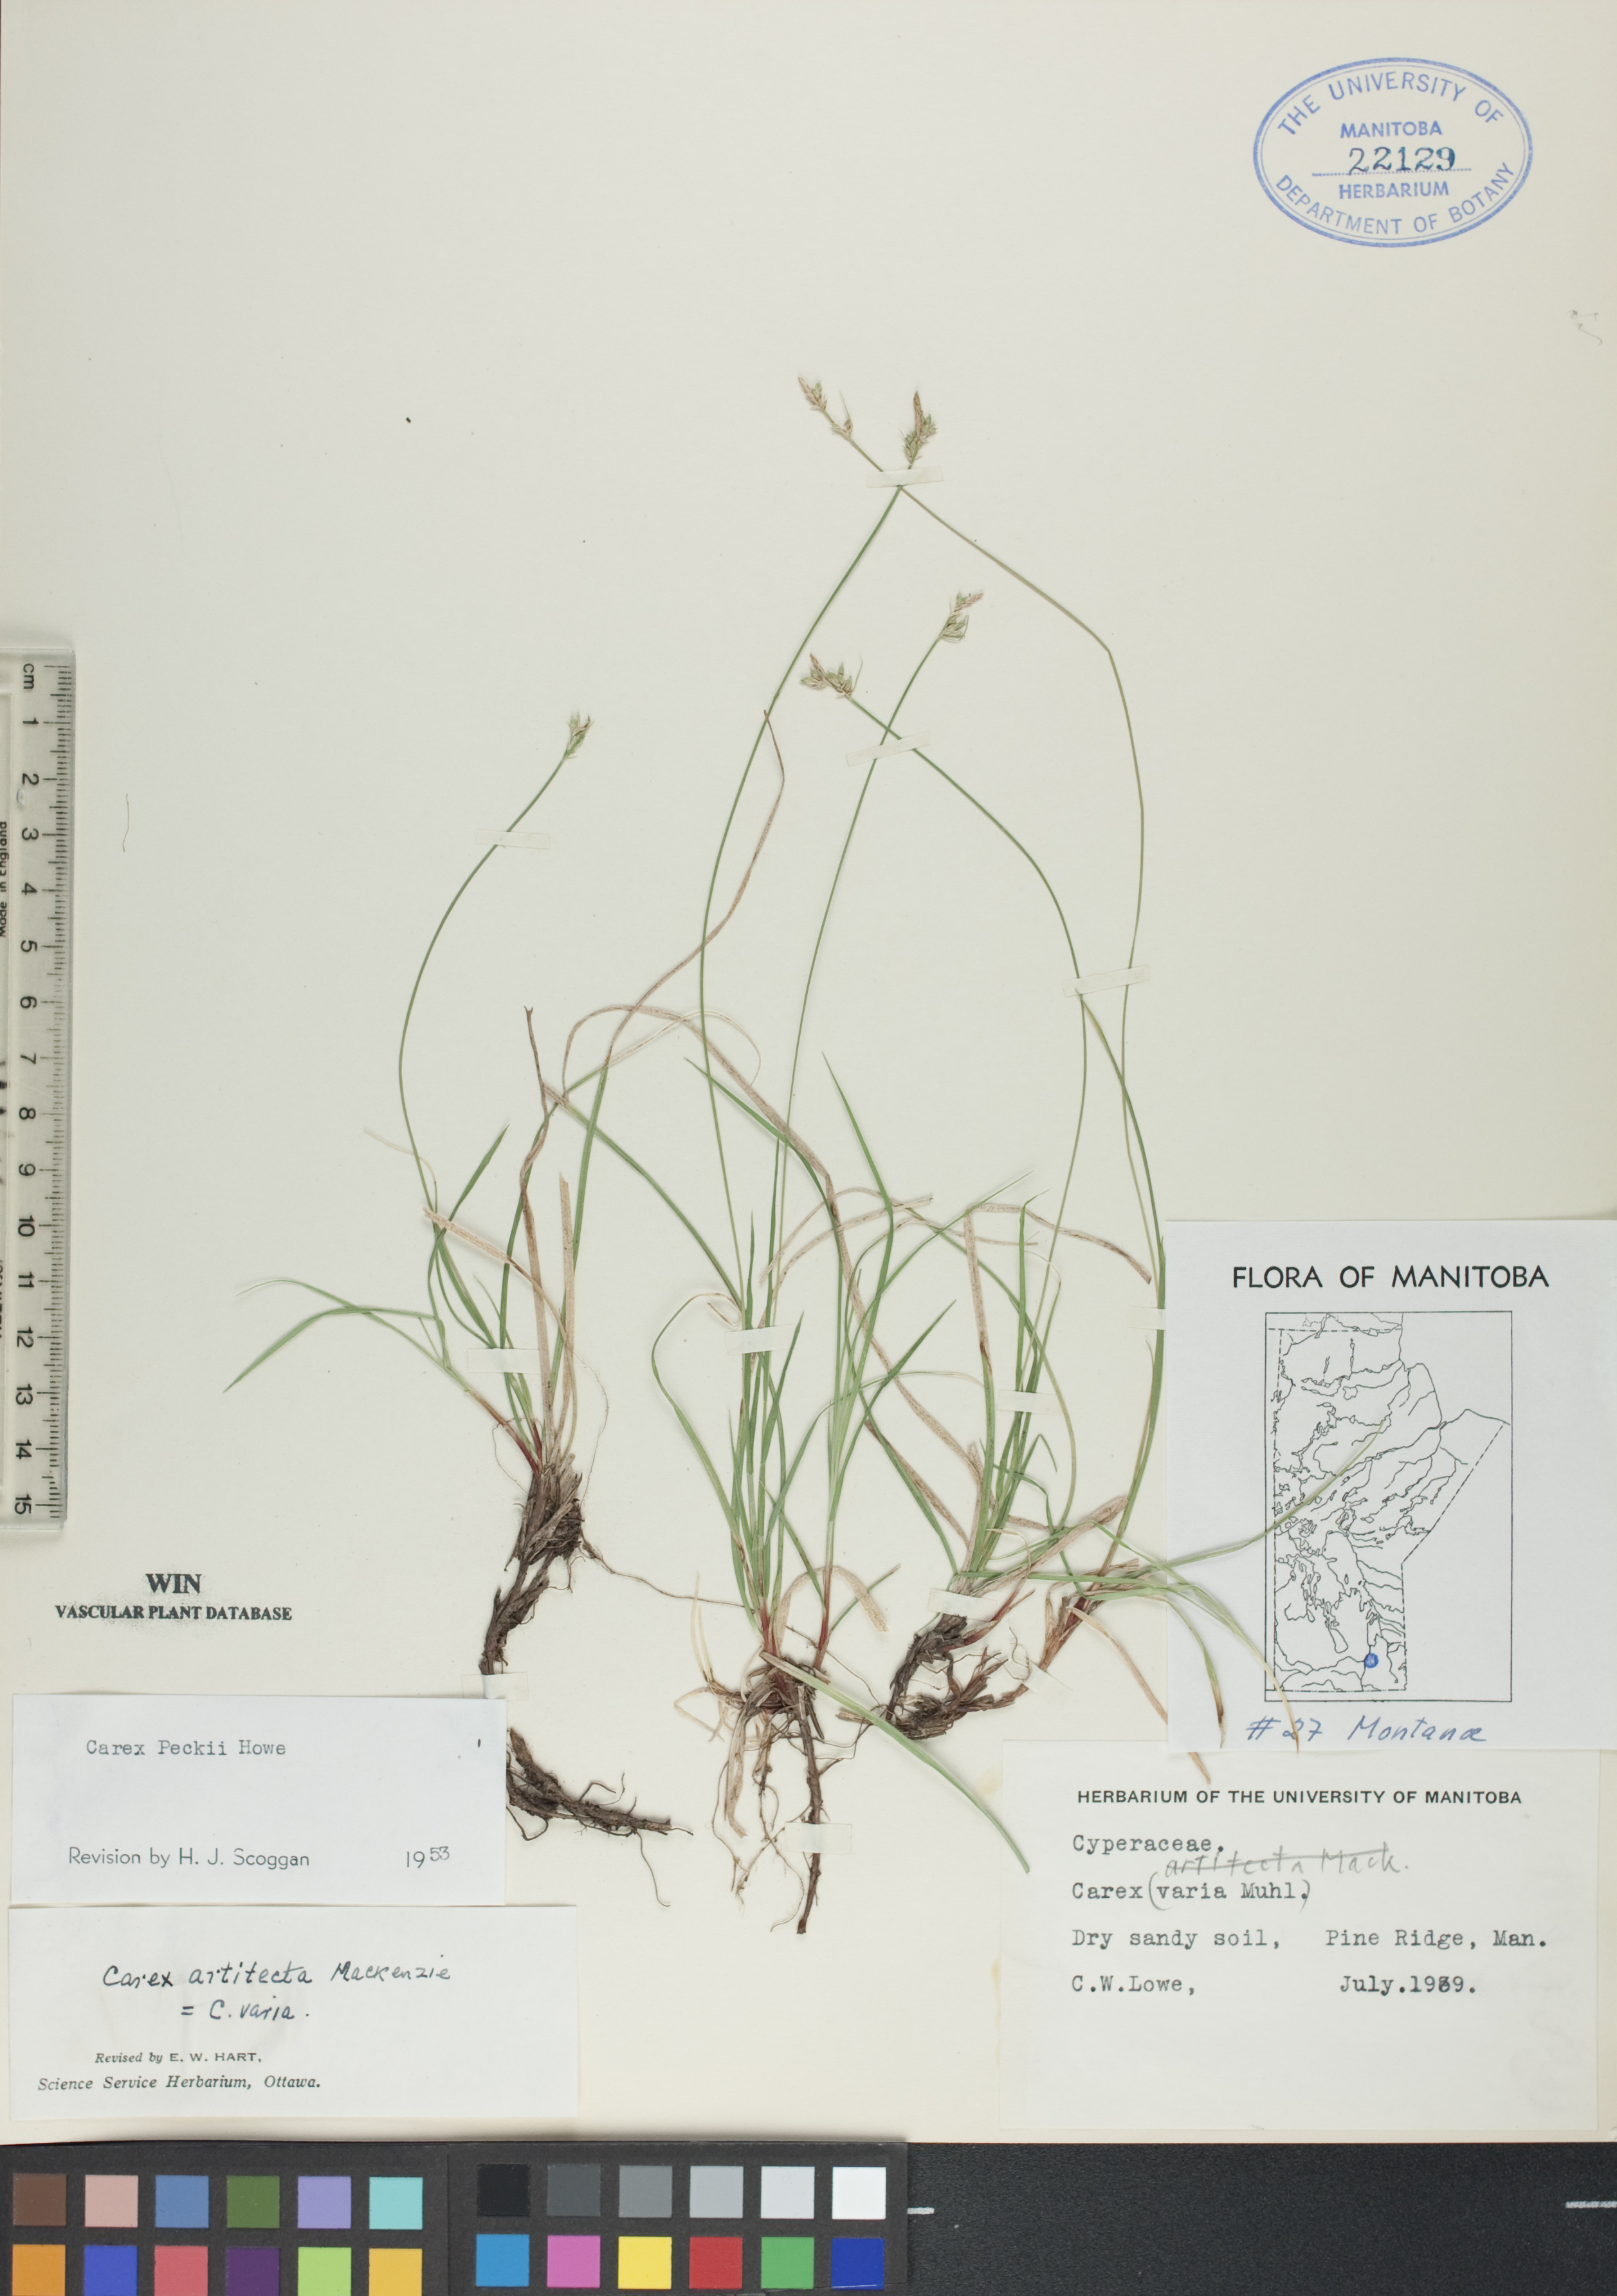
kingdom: Plantae
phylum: Tracheophyta
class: Liliopsida
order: Poales
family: Cyperaceae
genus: Carex
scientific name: Carex peckii
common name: Peck's oak sedge
